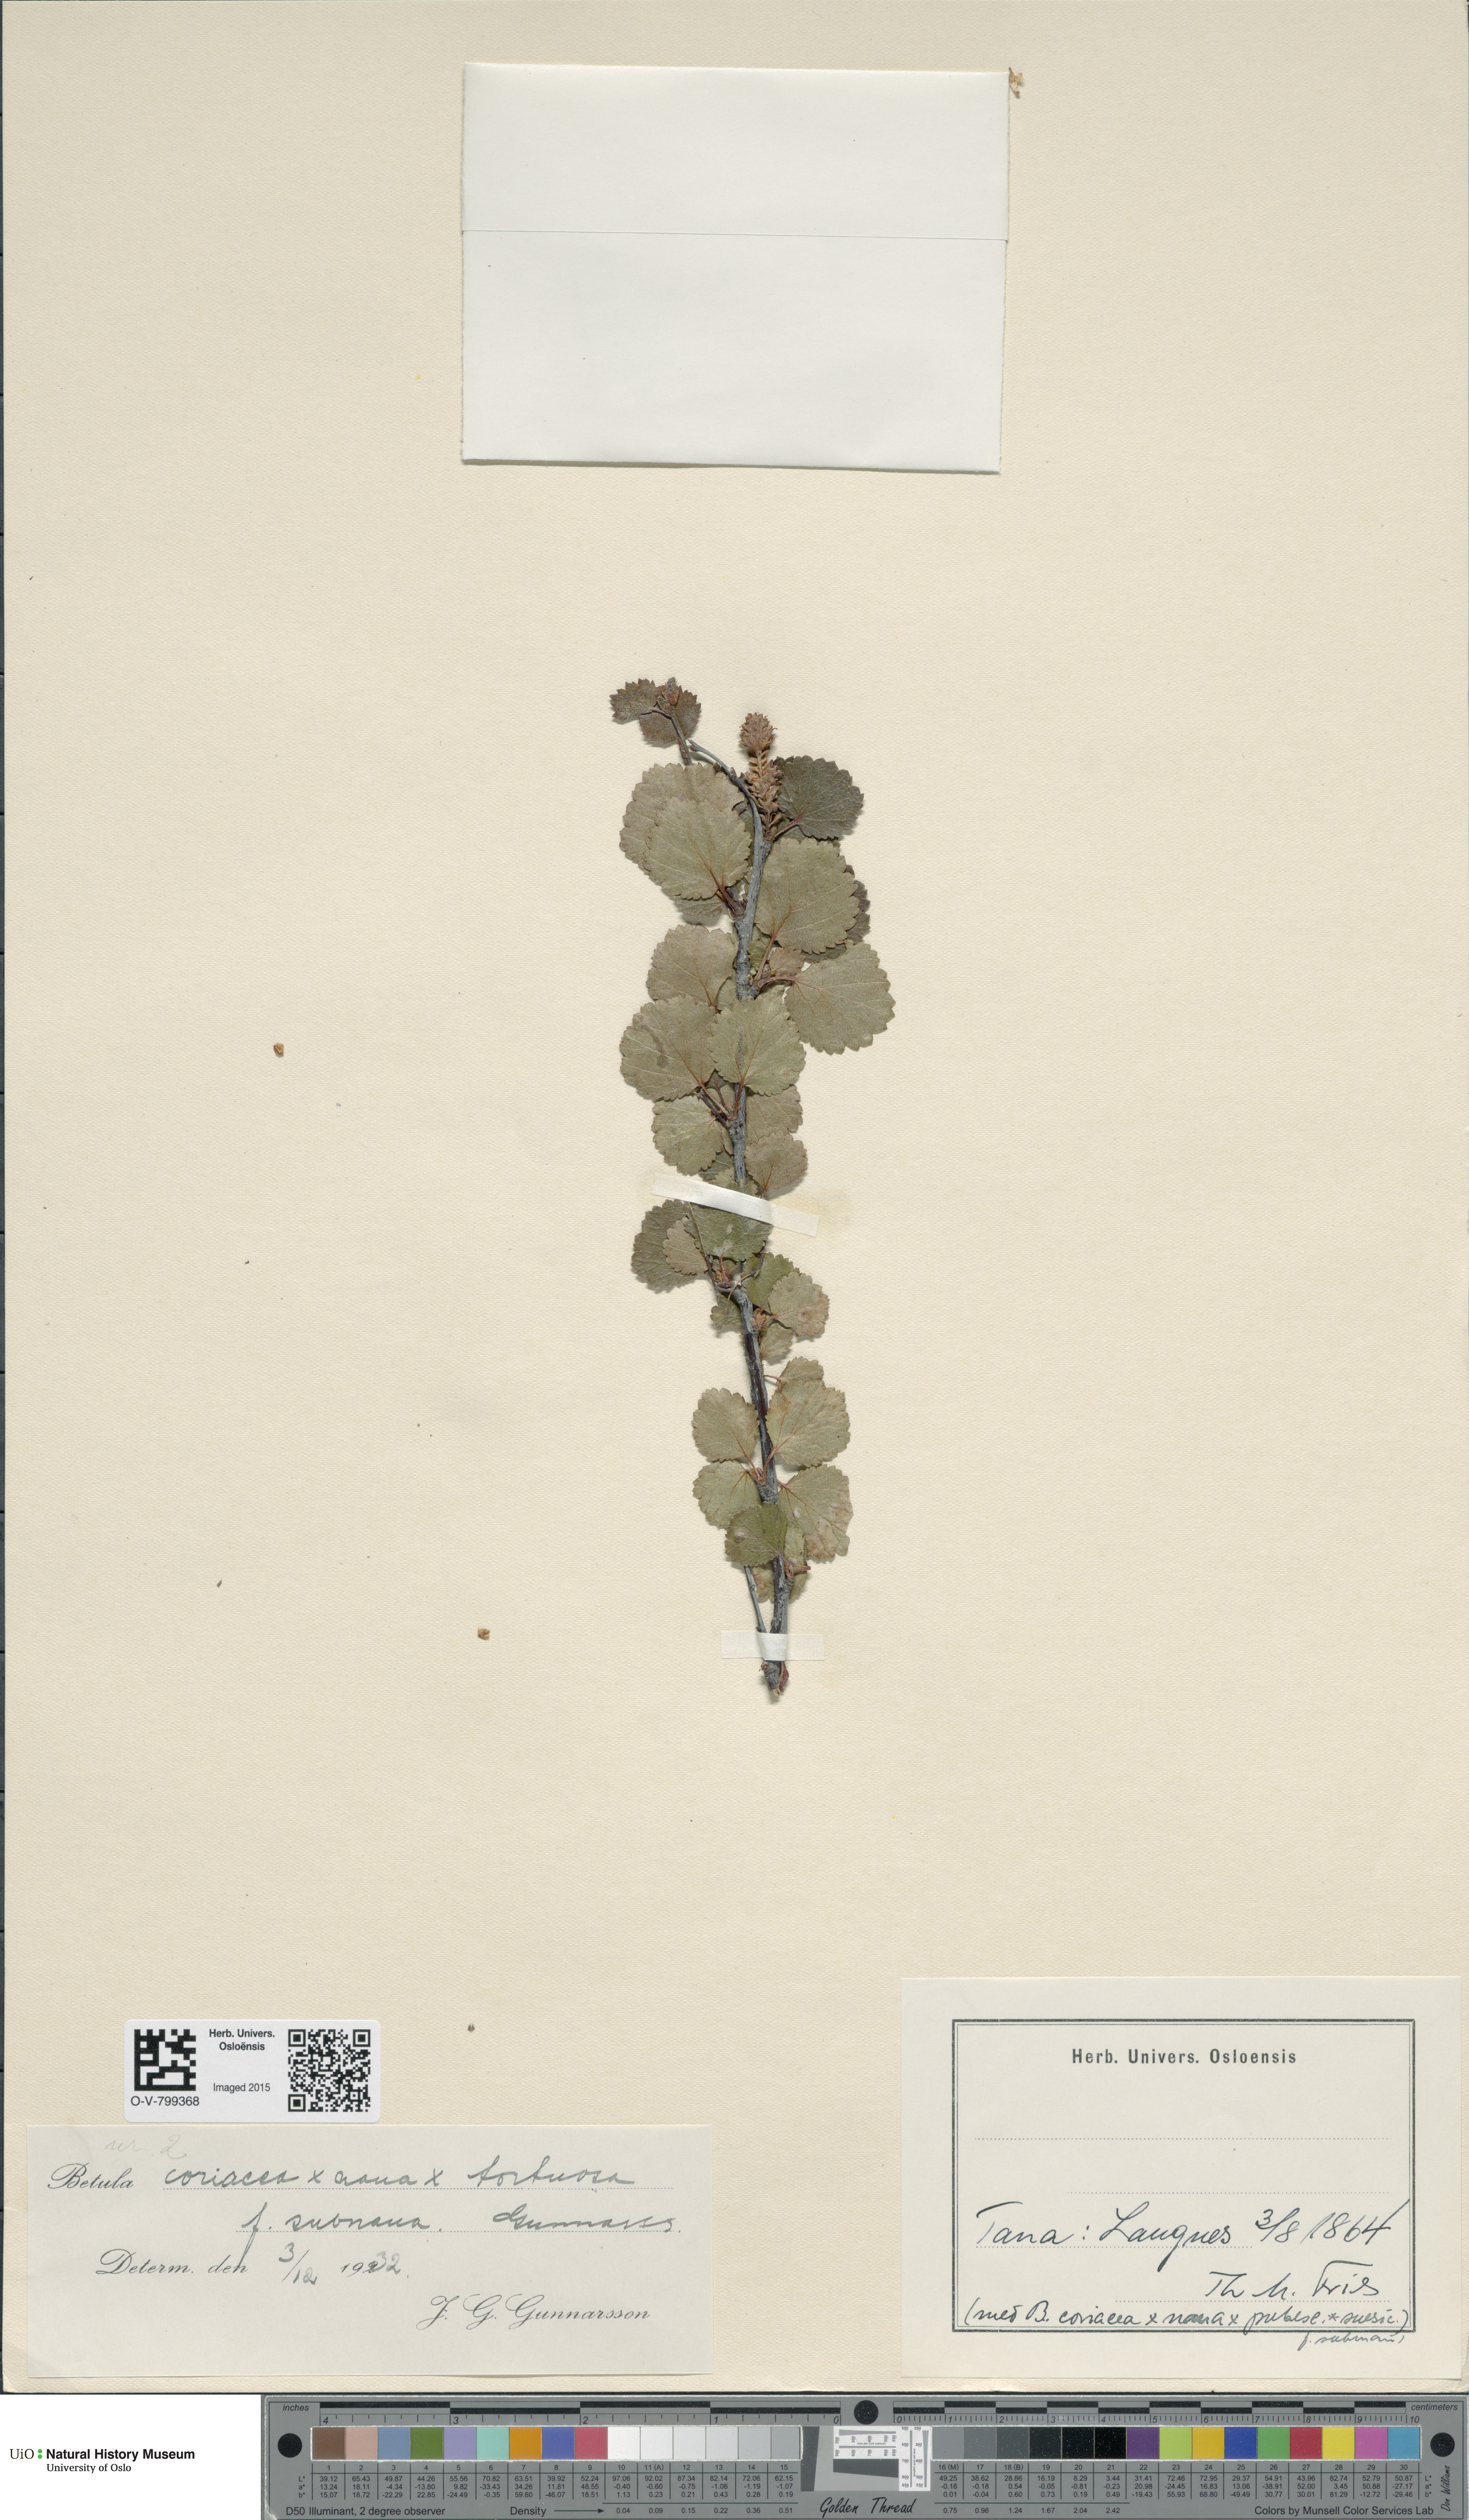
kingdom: Plantae
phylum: Tracheophyta
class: Magnoliopsida
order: Fagales
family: Betulaceae
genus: Betula
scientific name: Betula pubescens
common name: Downy birch
